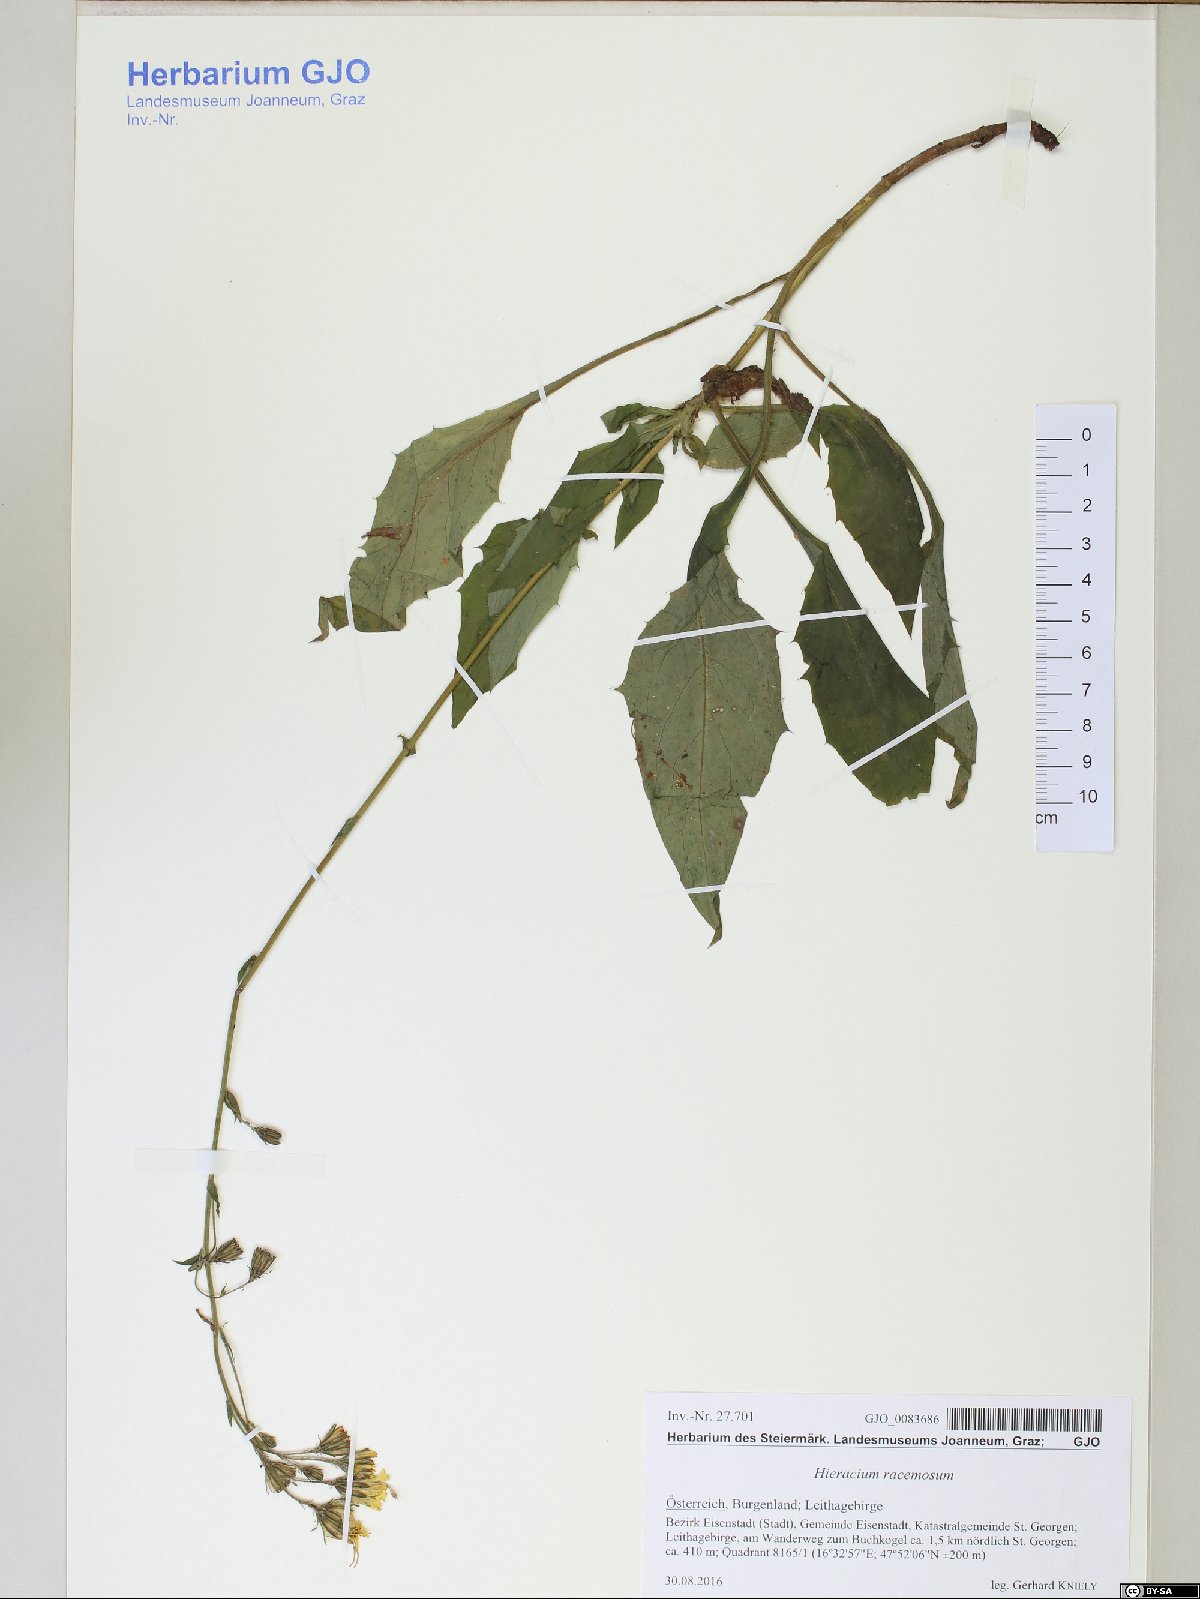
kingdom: Plantae
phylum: Tracheophyta
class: Magnoliopsida
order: Asterales
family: Asteraceae
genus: Hieracium
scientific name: Hieracium racemosum
